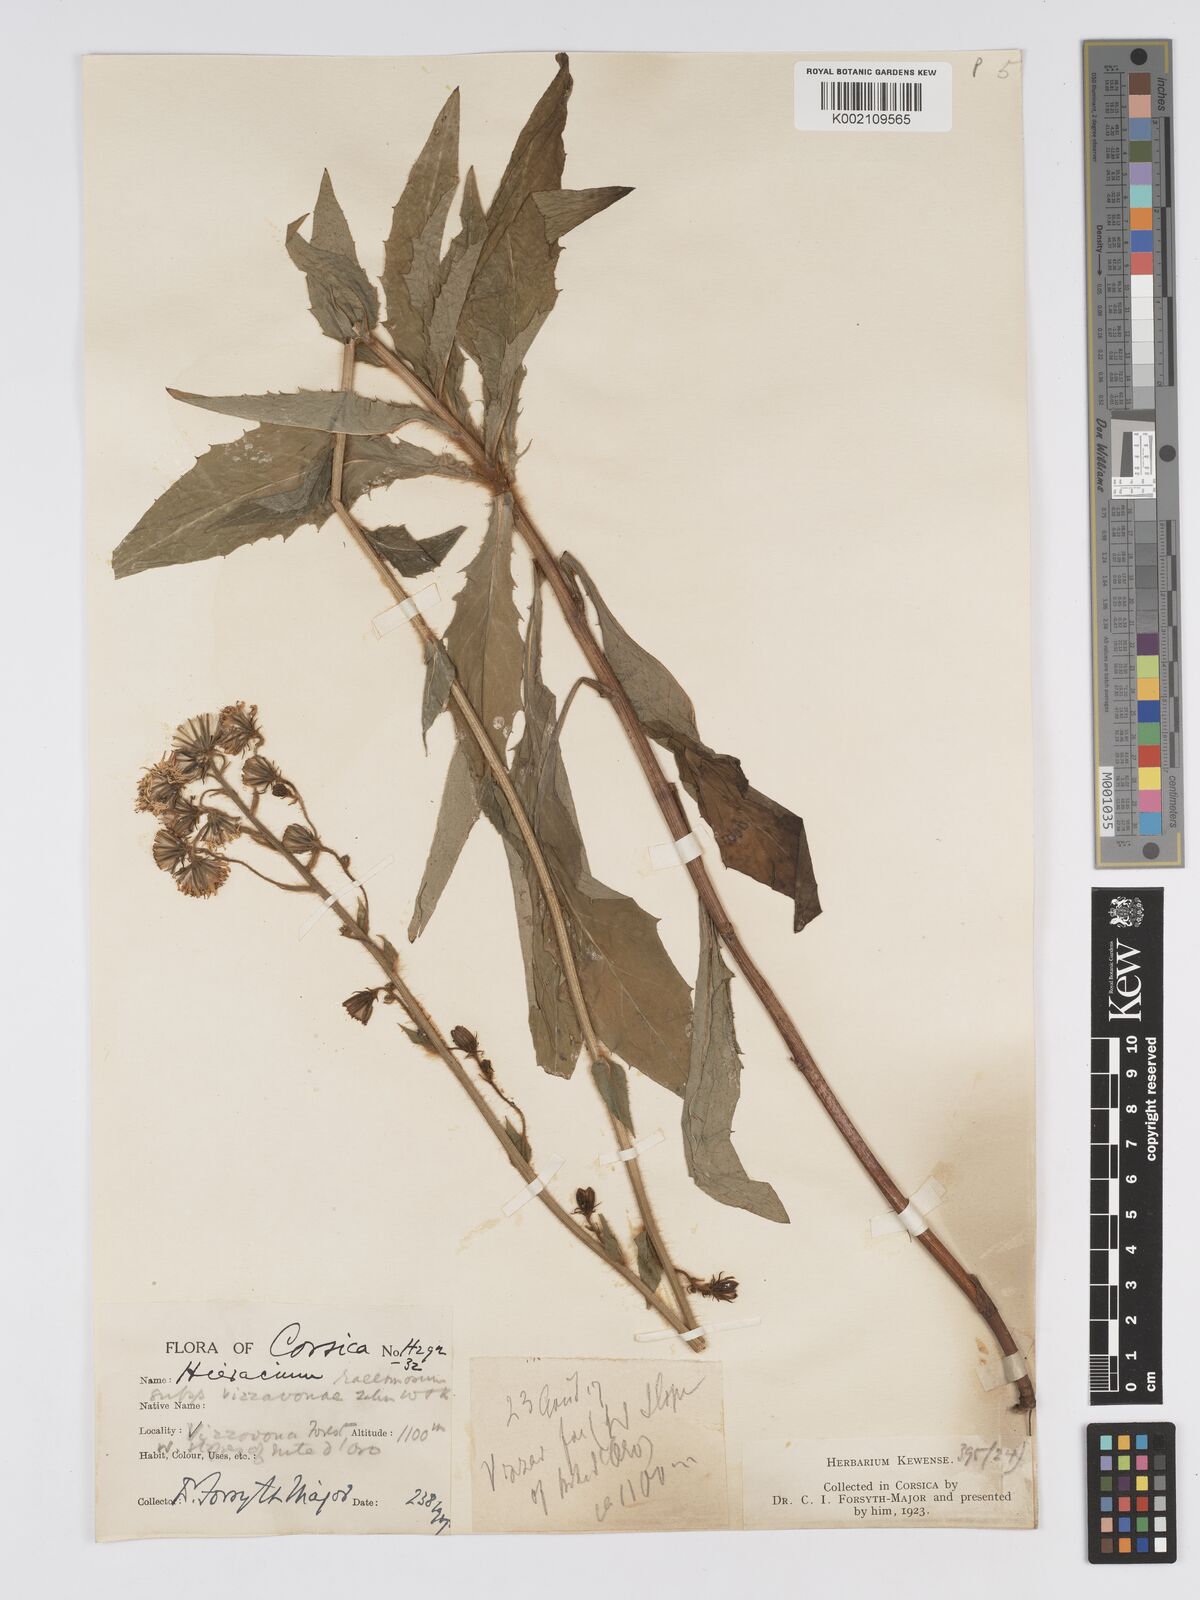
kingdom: Plantae
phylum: Tracheophyta
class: Magnoliopsida
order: Asterales
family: Asteraceae
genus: Hieracium
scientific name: Hieracium racemosum
